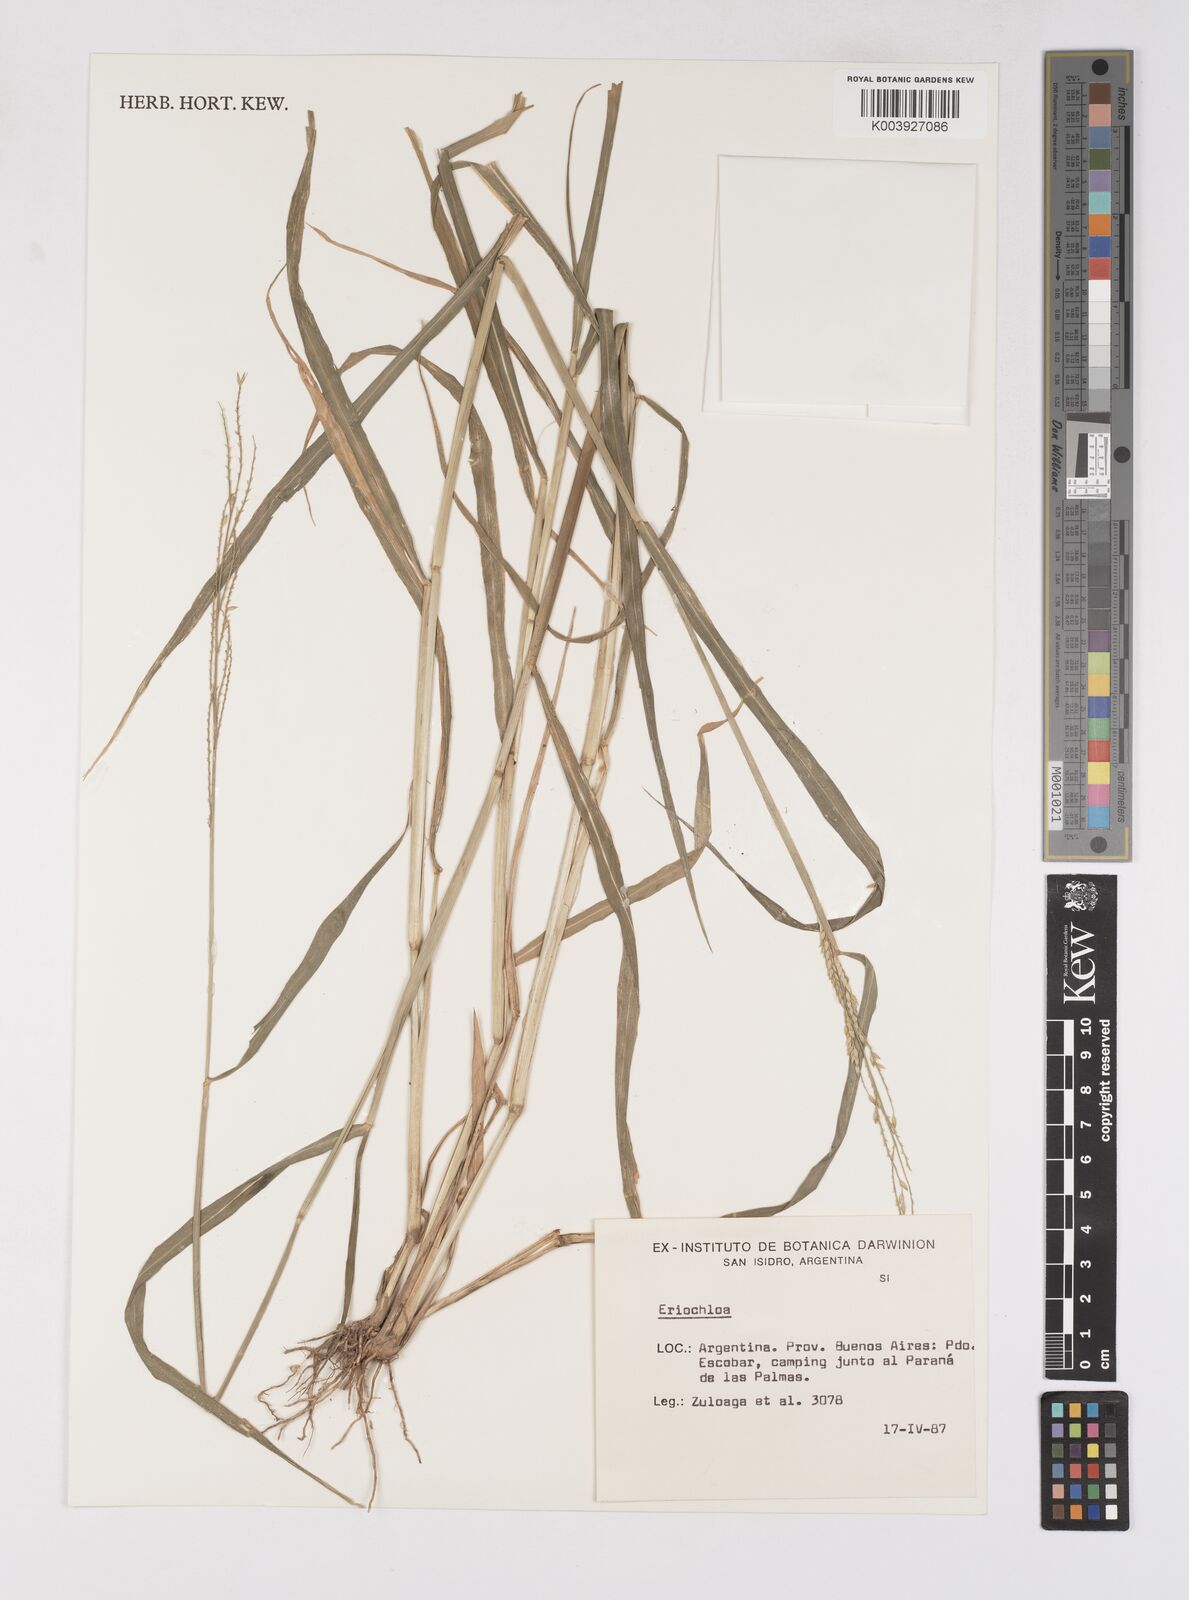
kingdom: Plantae
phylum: Tracheophyta
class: Liliopsida
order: Poales
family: Poaceae
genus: Eriochloa
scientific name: Eriochloa punctata
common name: Louisiana cupgrass
